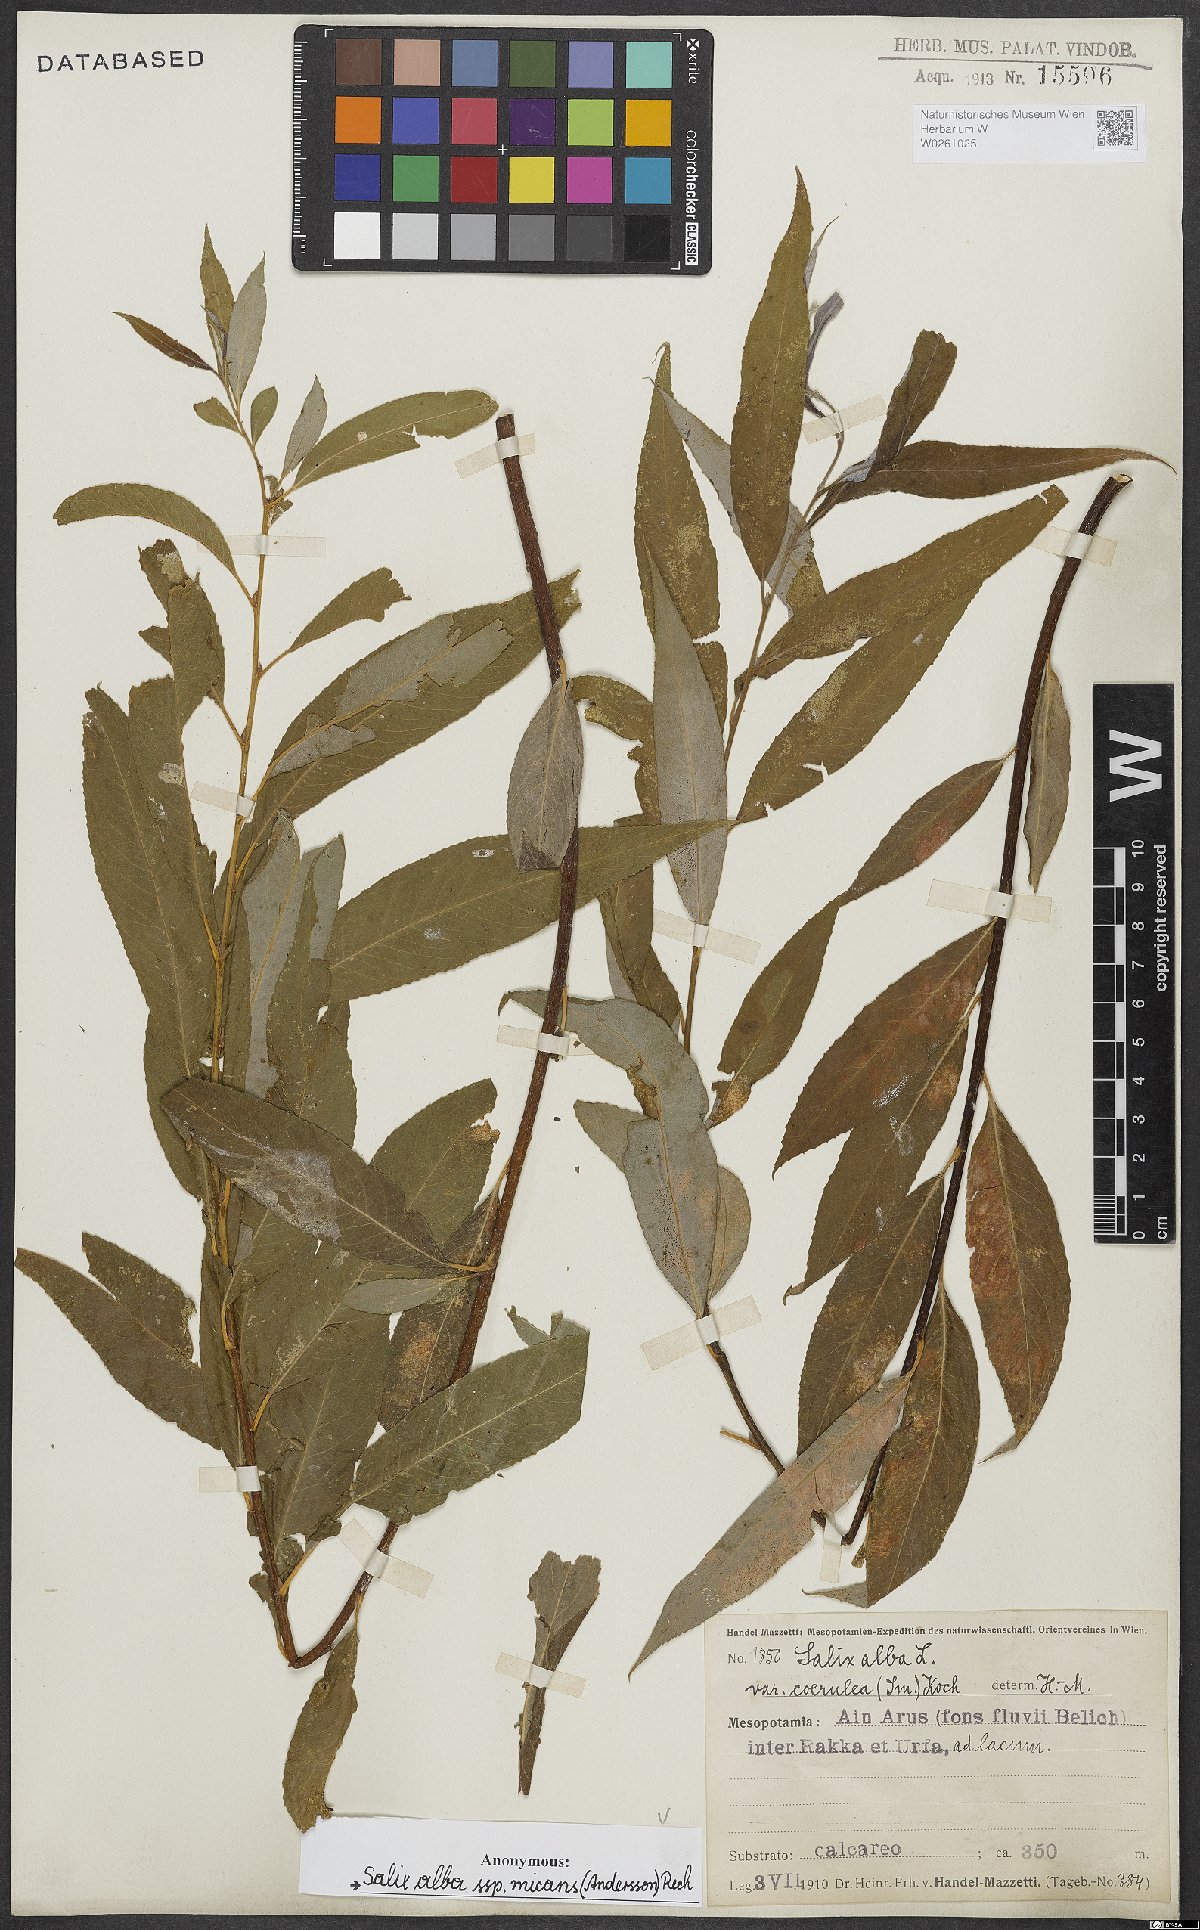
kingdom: Plantae
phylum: Tracheophyta
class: Magnoliopsida
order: Malpighiales
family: Salicaceae
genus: Salix
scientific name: Salix alba
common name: White willow
